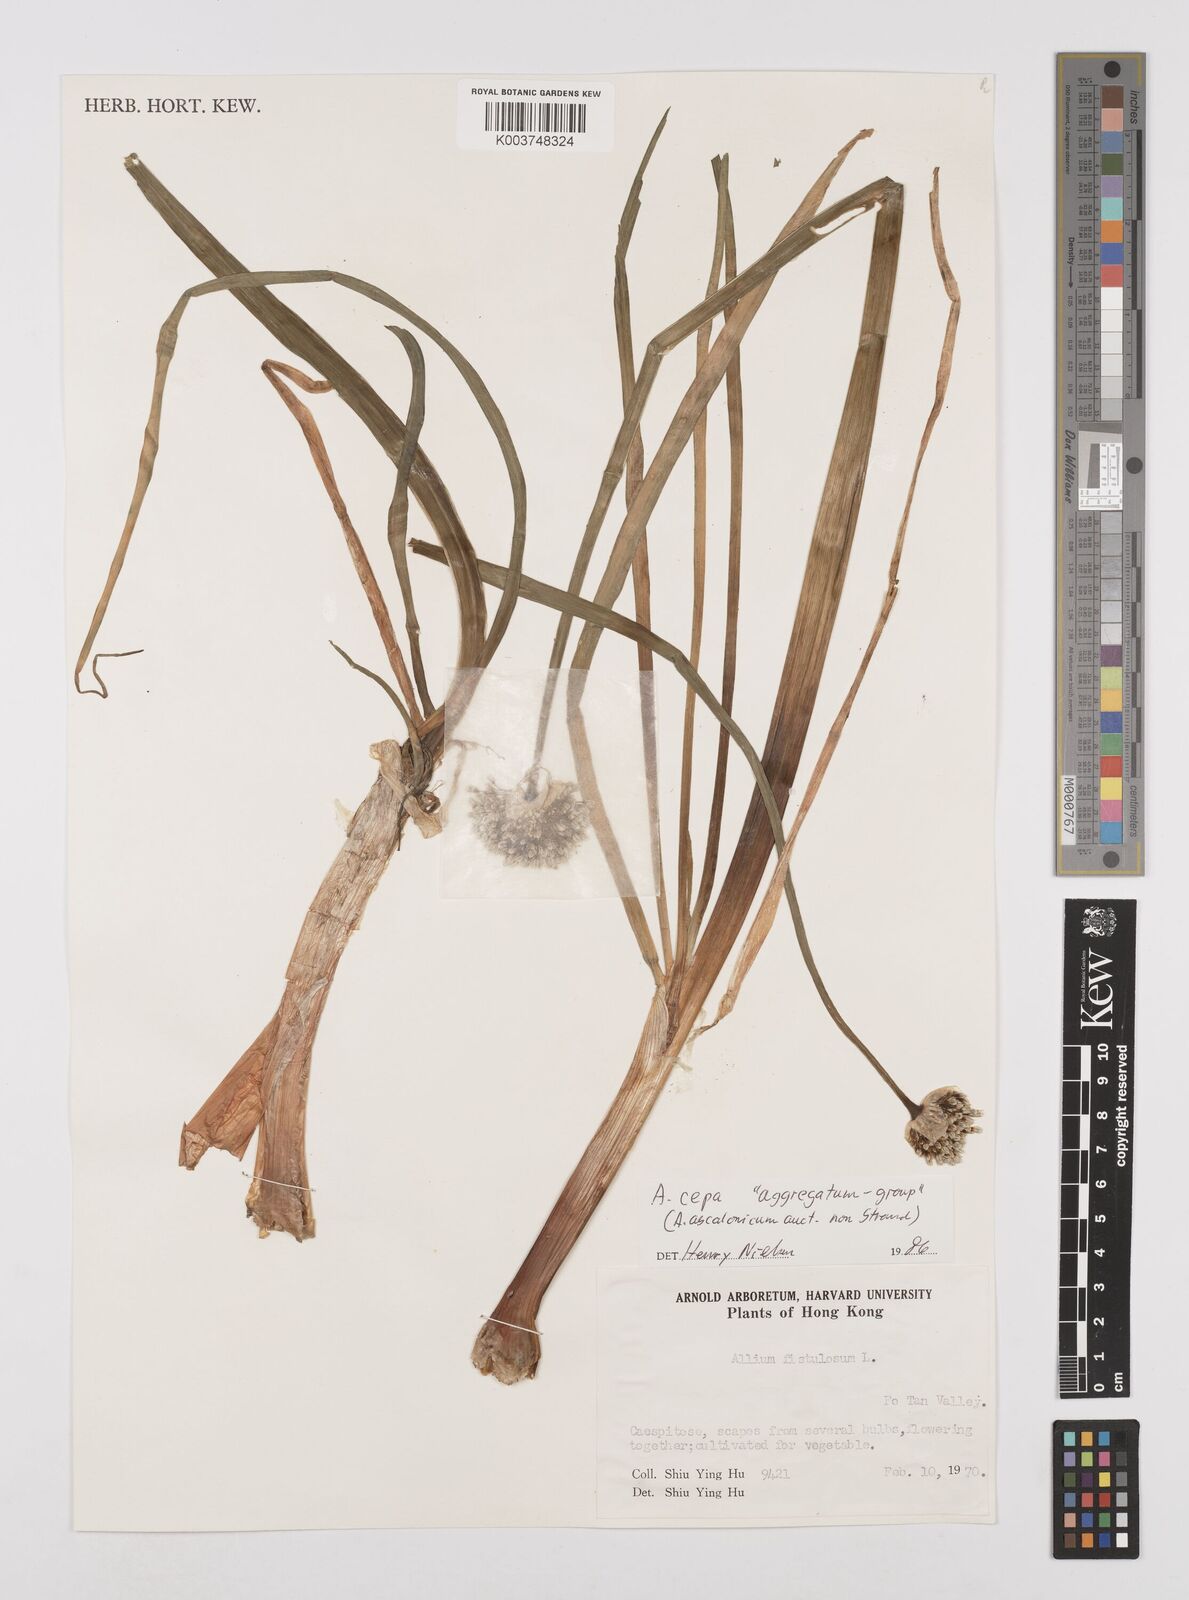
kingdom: Plantae
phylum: Tracheophyta
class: Liliopsida
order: Asparagales
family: Amaryllidaceae
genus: Allium
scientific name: Allium cepa
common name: Onion
